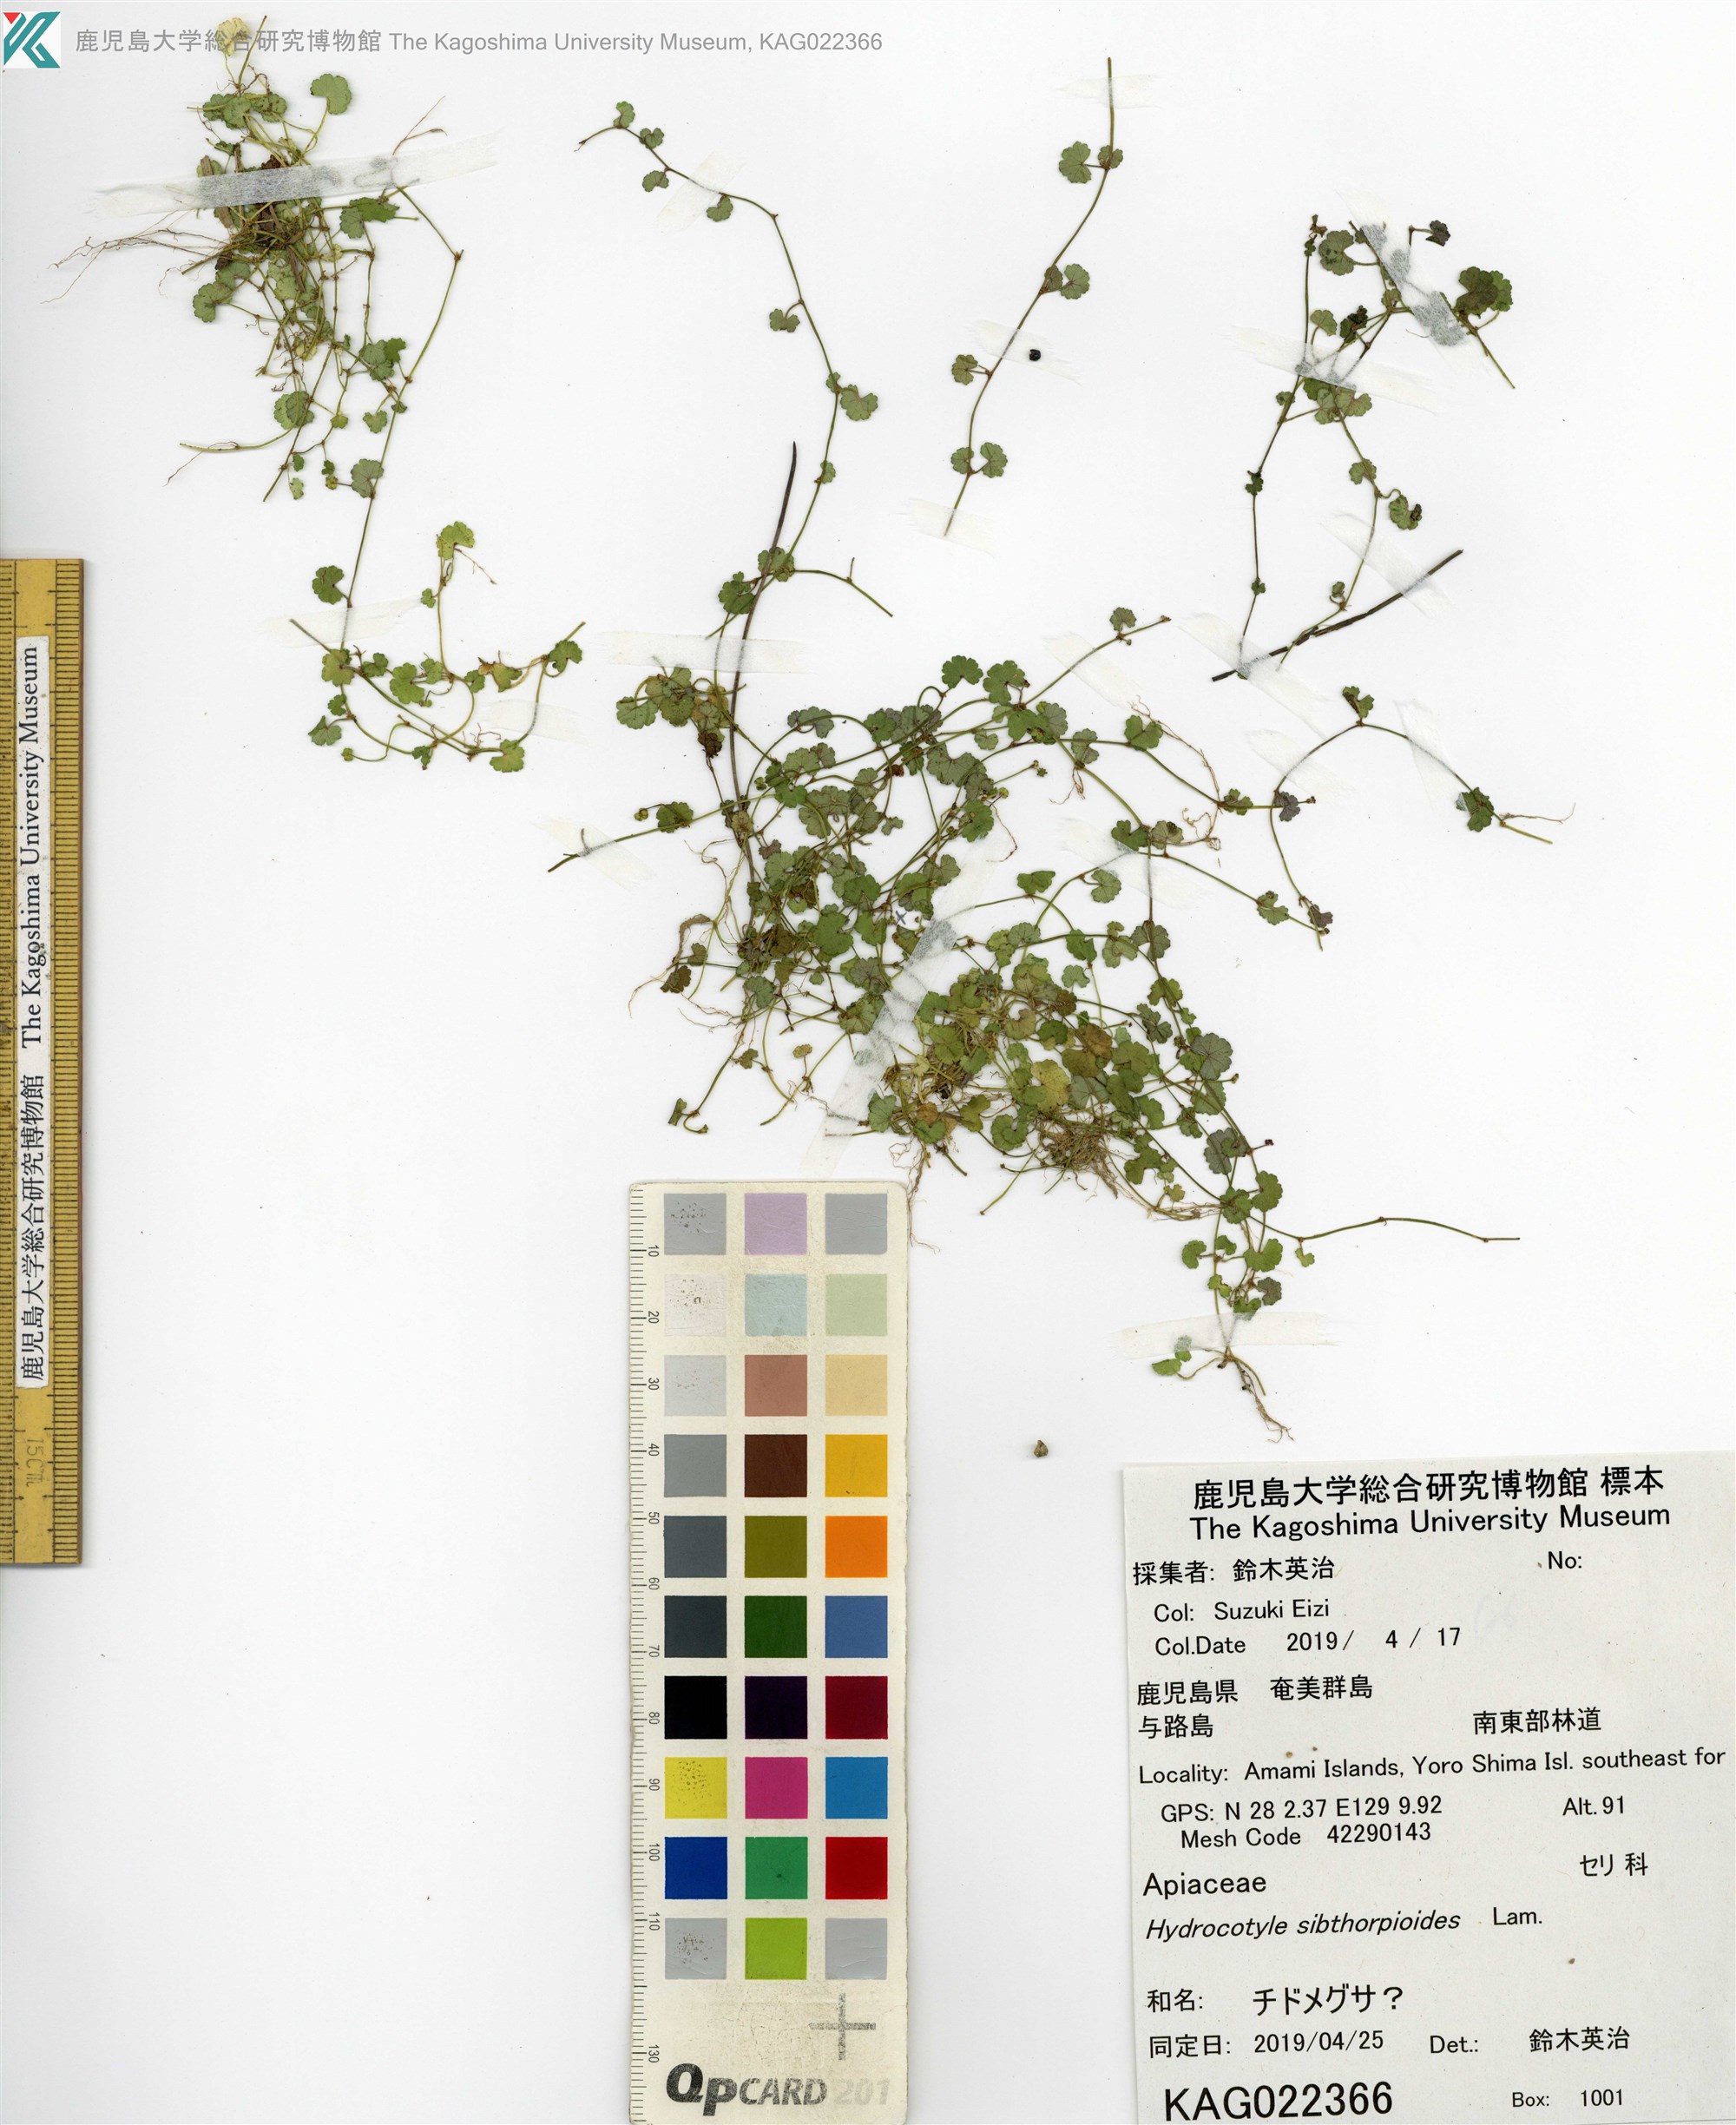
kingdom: Plantae
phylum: Tracheophyta
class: Magnoliopsida
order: Apiales
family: Araliaceae
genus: Hydrocotyle
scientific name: Hydrocotyle sibthorpioides
